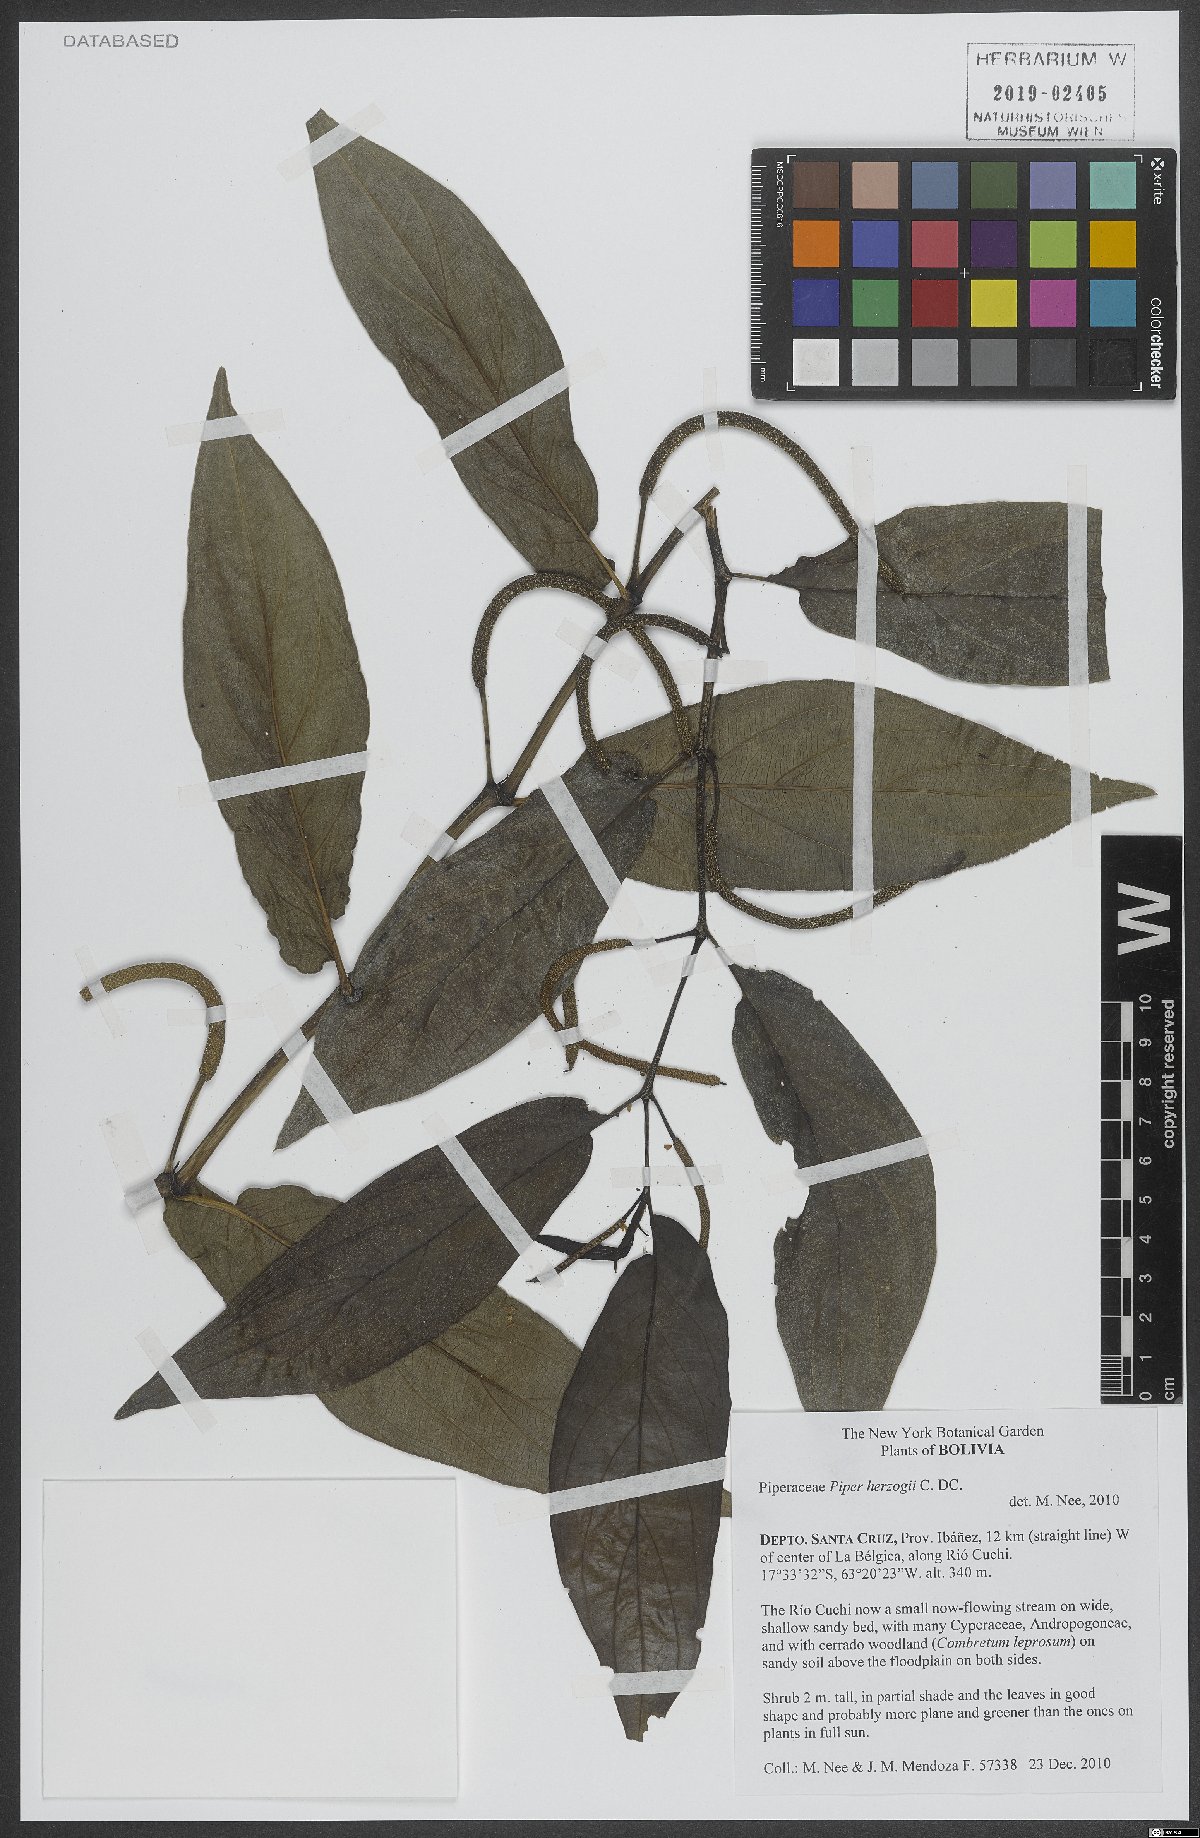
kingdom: Plantae
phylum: Tracheophyta
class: Magnoliopsida
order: Piperales
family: Piperaceae
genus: Piper
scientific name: Piper aduncum
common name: Spiked pepper
